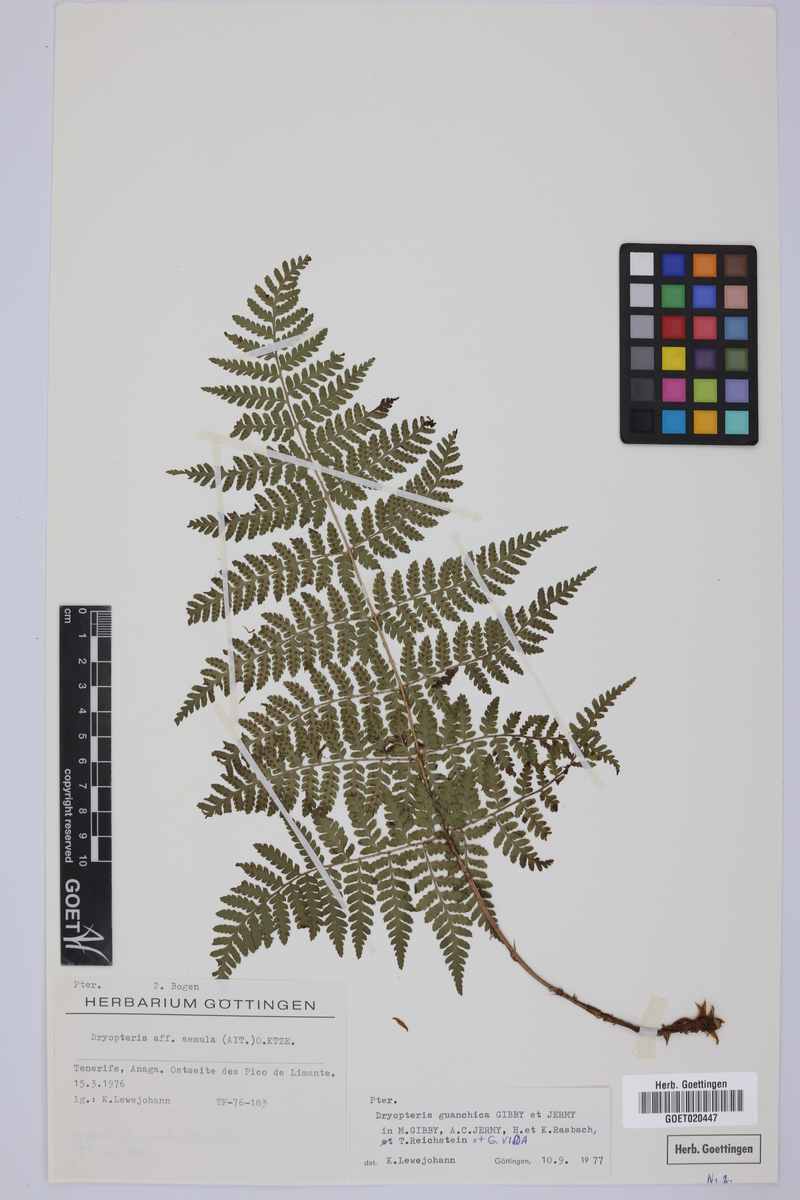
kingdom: Plantae
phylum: Tracheophyta
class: Polypodiopsida
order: Polypodiales
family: Dryopteridaceae
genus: Dryopteris
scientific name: Dryopteris guanchica
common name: Guanche woodfern
